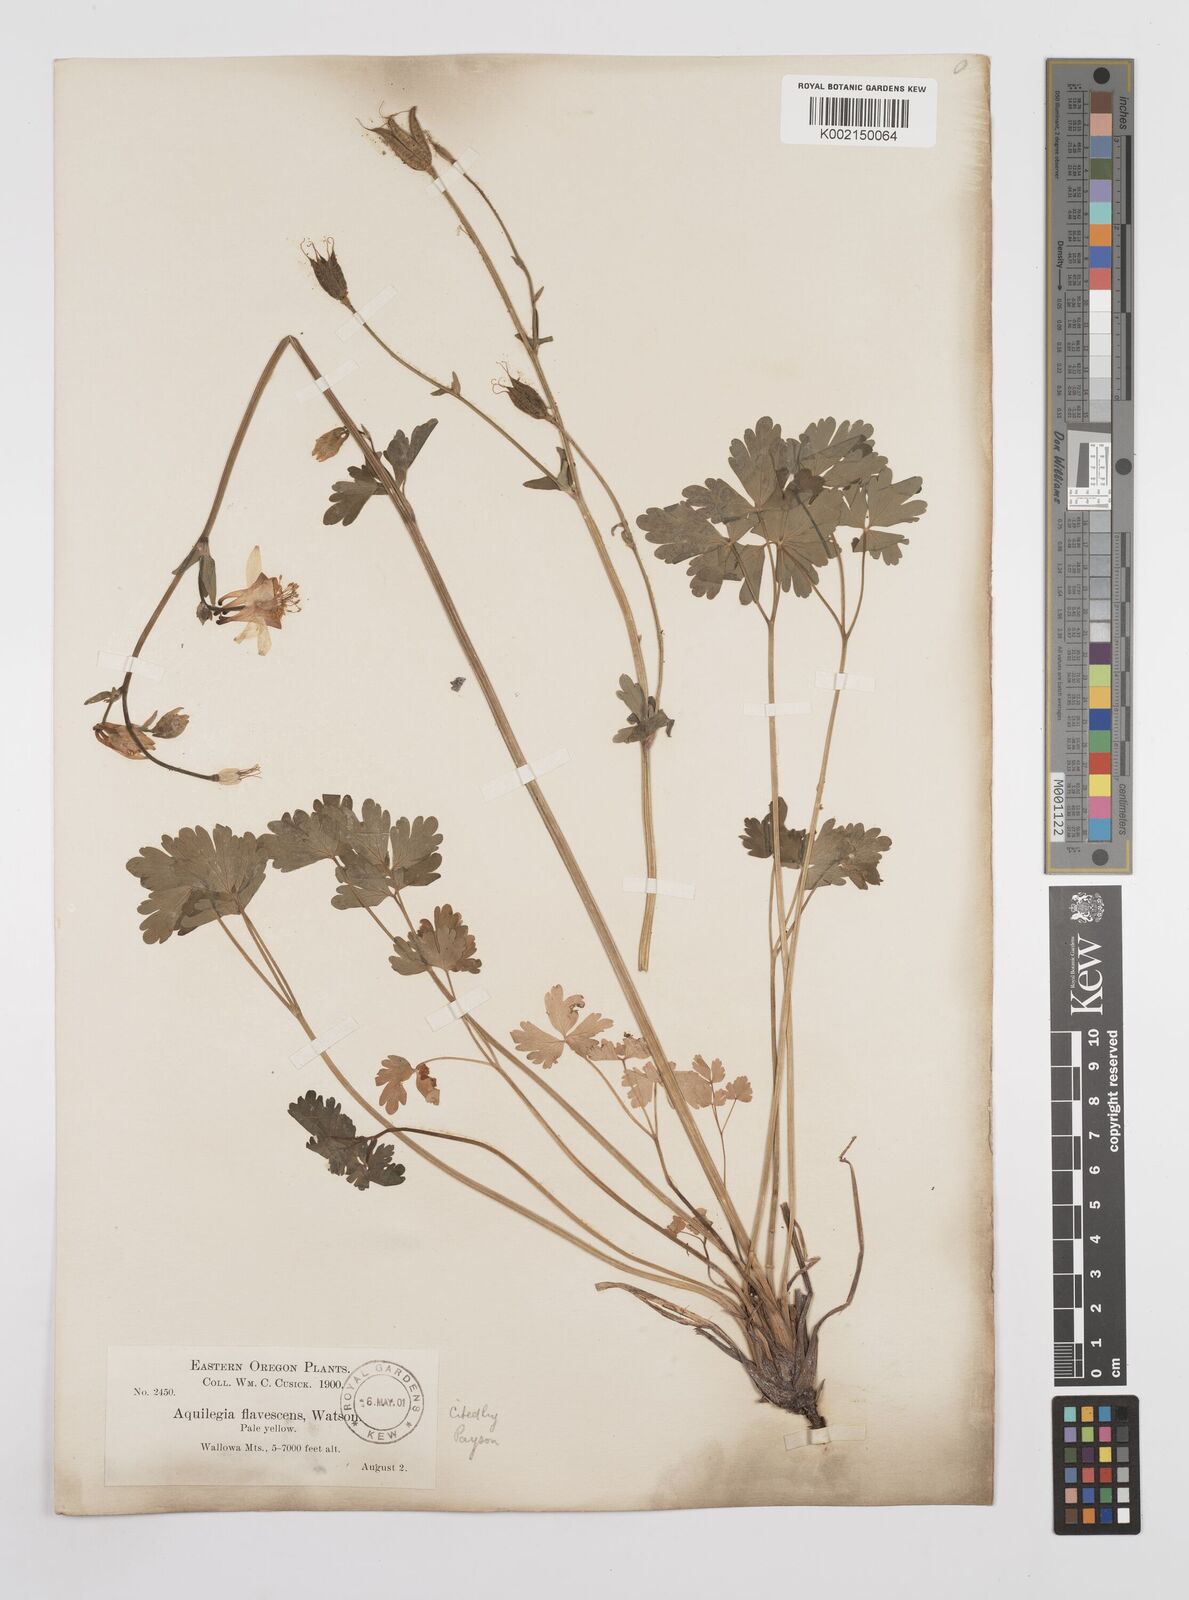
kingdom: Plantae
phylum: Tracheophyta
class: Magnoliopsida
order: Ranunculales
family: Ranunculaceae
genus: Aquilegia
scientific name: Aquilegia flavescens
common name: Yellow columbine
